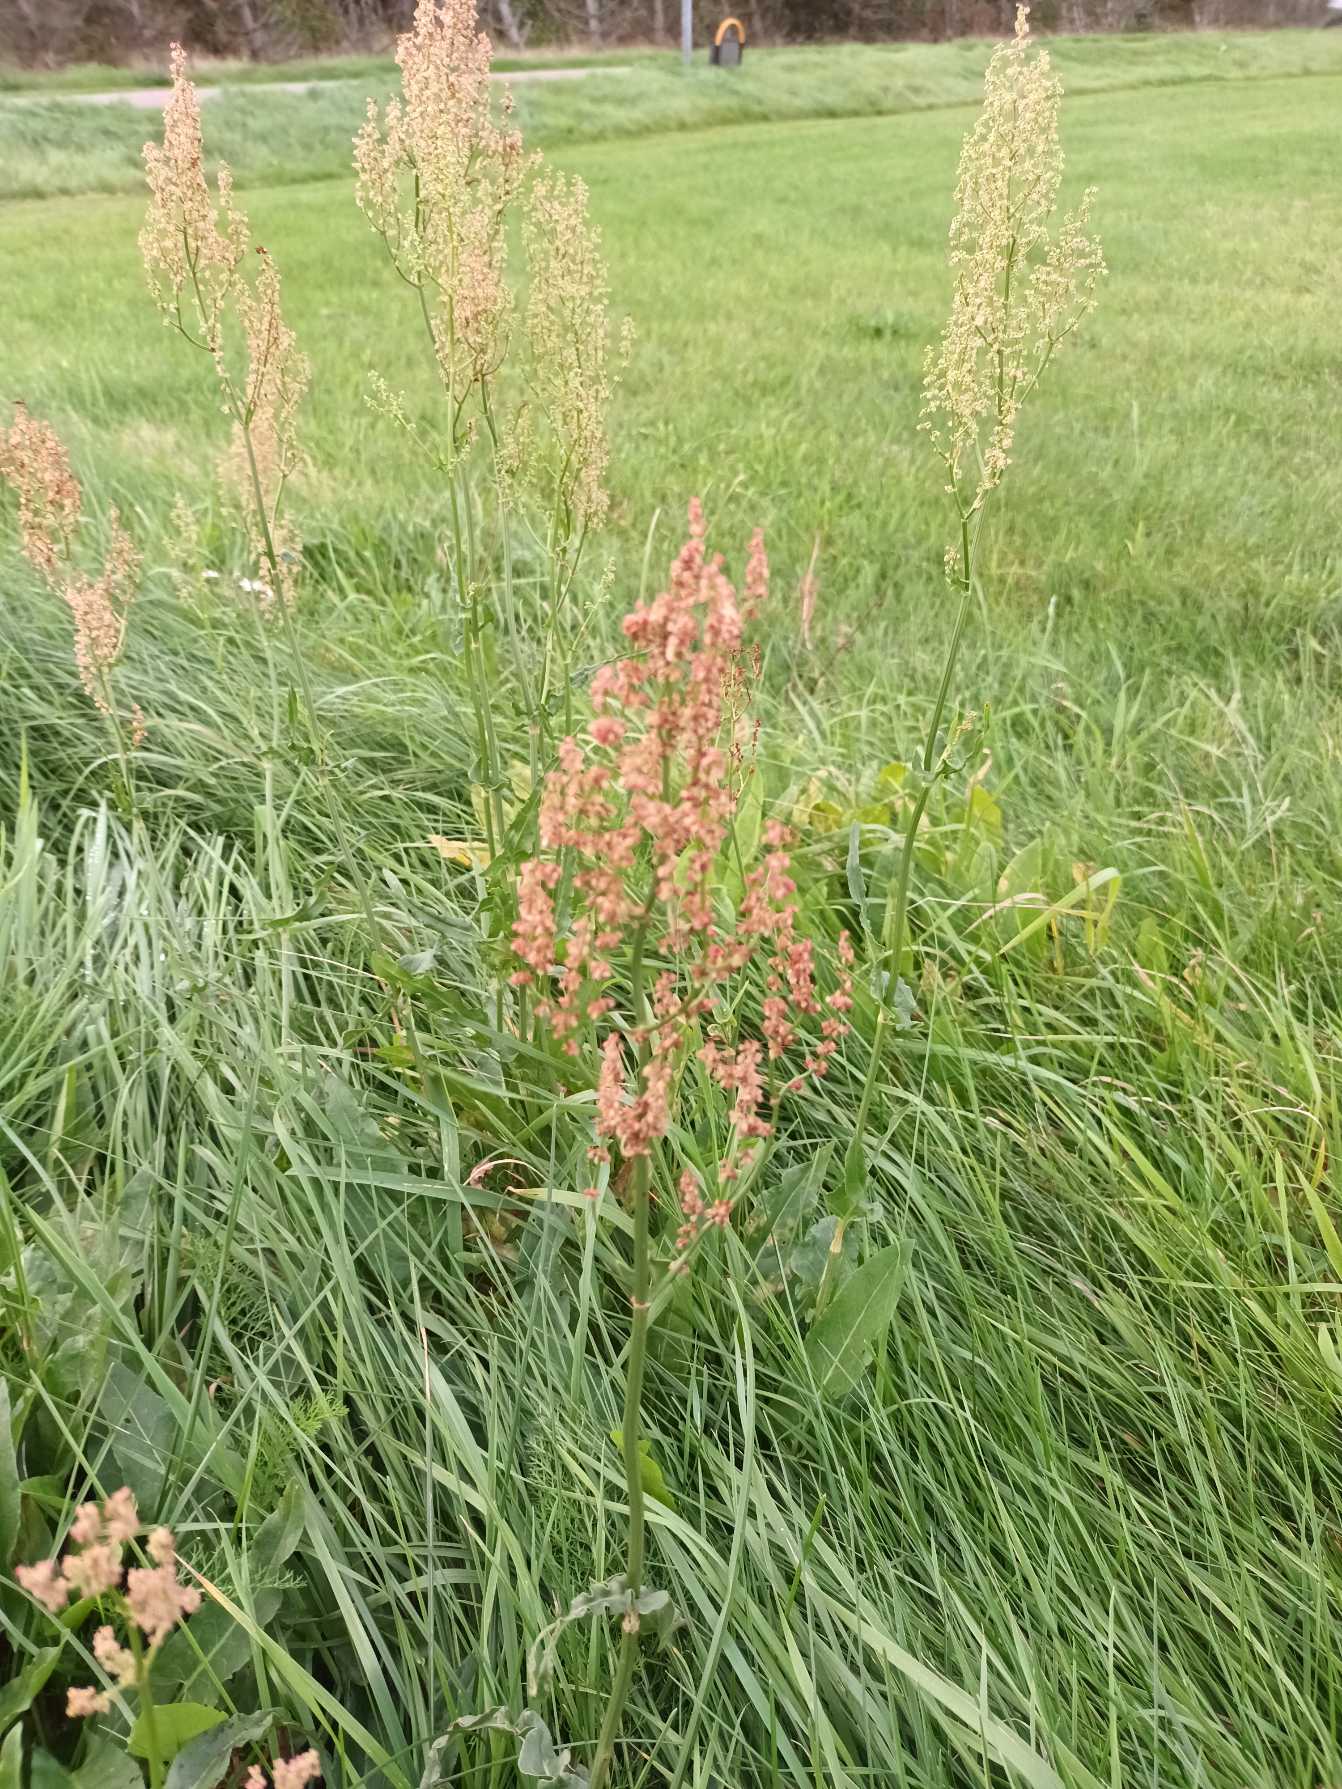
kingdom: Plantae
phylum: Tracheophyta
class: Magnoliopsida
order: Caryophyllales
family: Polygonaceae
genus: Rumex
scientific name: Rumex thyrsiflorus
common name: Dusk-syre
